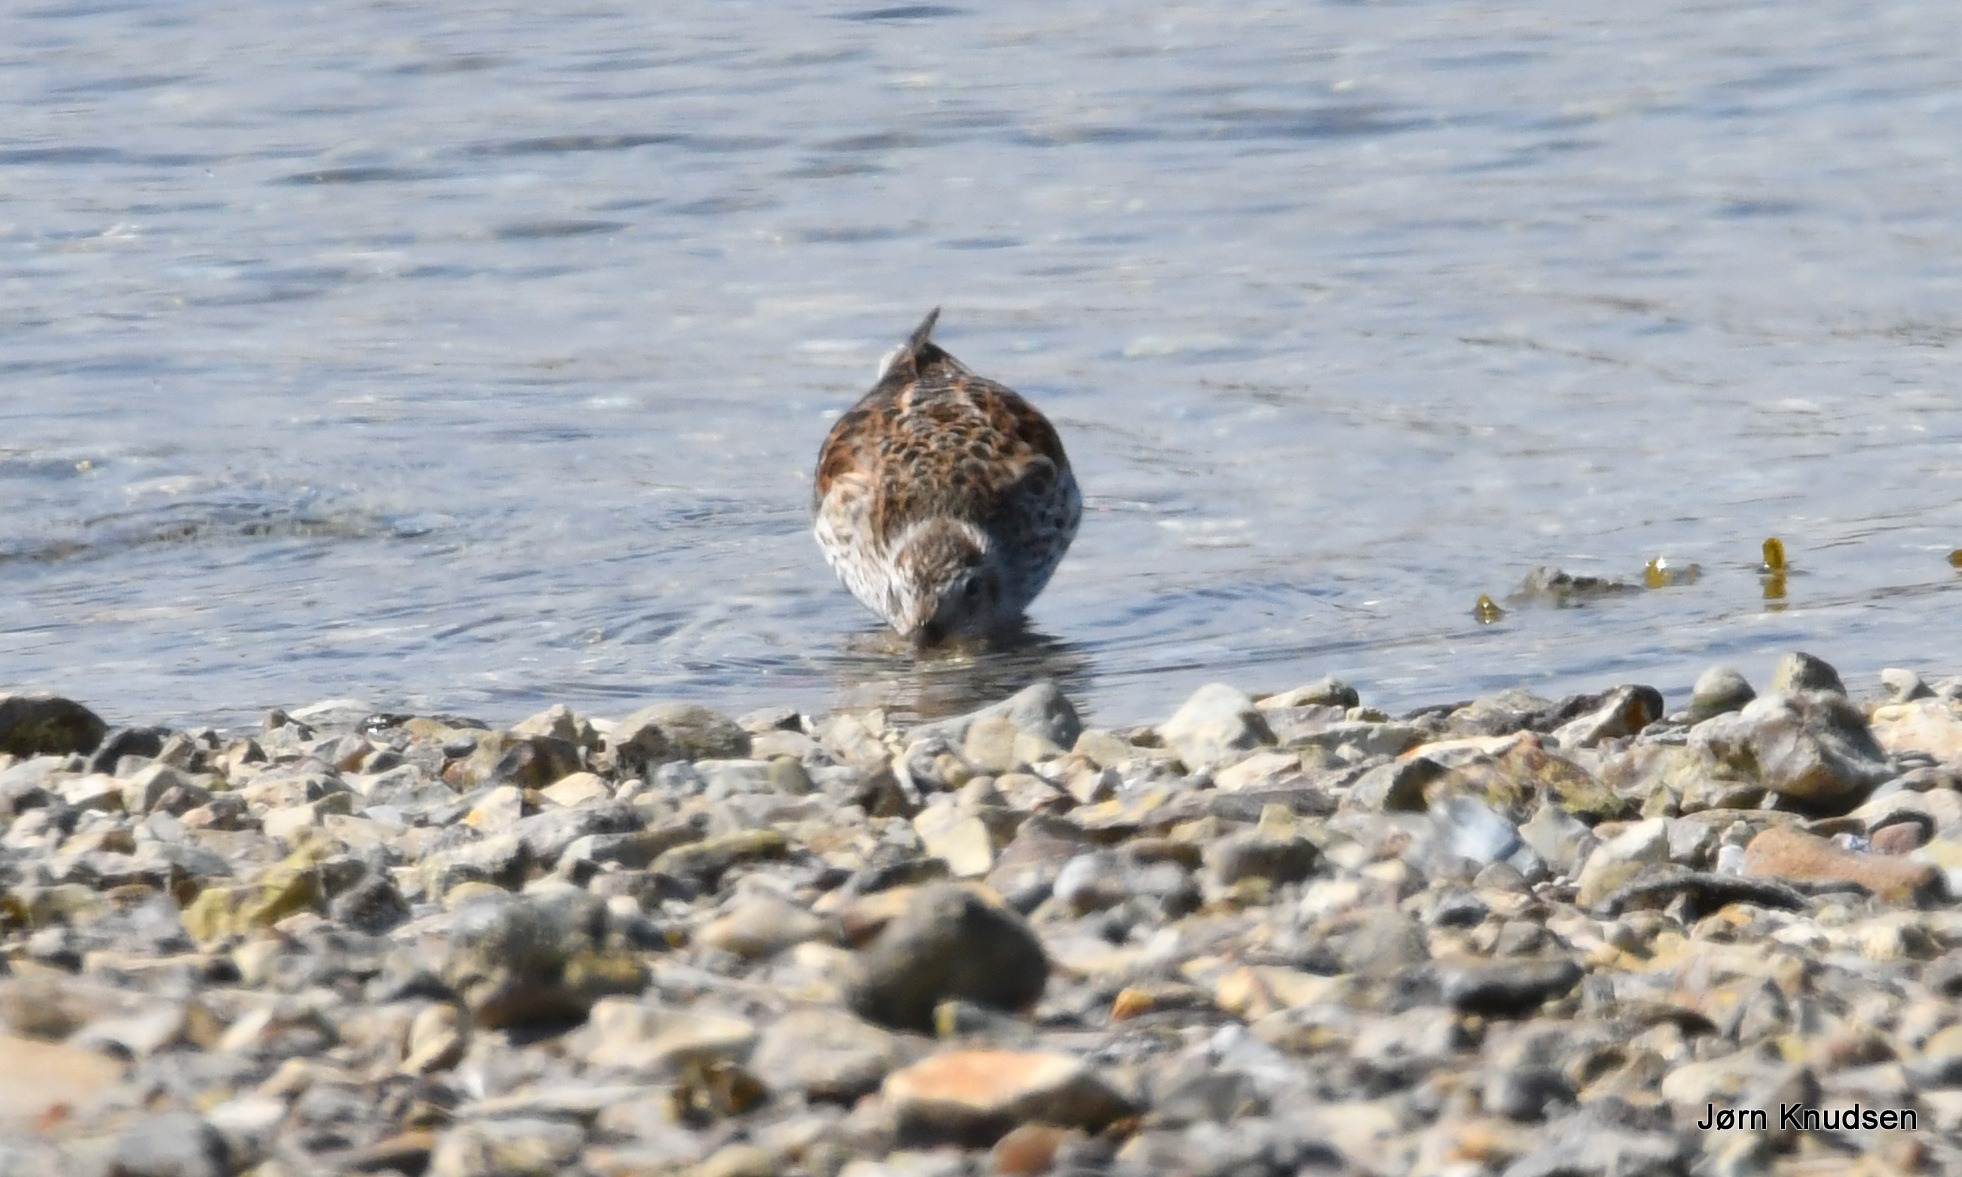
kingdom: Animalia
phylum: Chordata
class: Aves
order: Charadriiformes
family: Scolopacidae
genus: Calidris
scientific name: Calidris alpina
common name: Almindelig ryle
